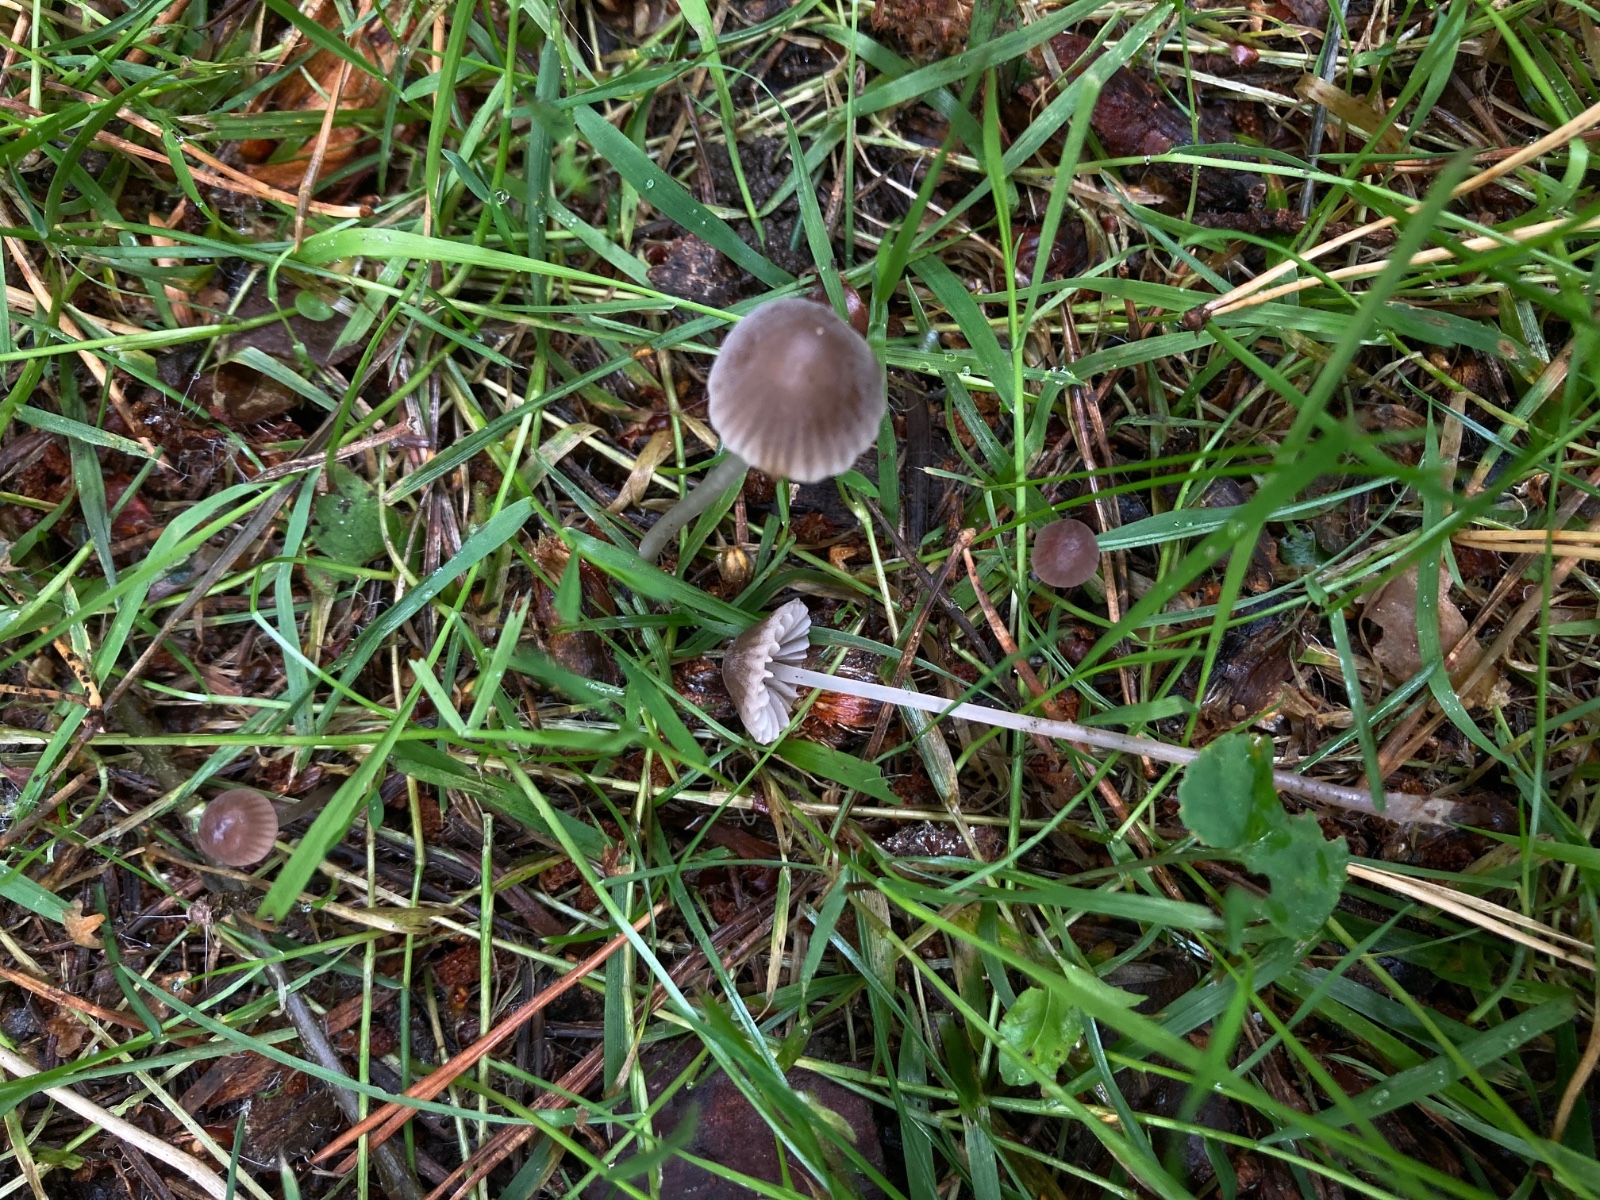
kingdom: Fungi
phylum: Basidiomycota
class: Agaricomycetes
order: Agaricales
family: Mycenaceae
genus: Mycena
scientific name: Mycena leptocephala
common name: klor-huesvamp
